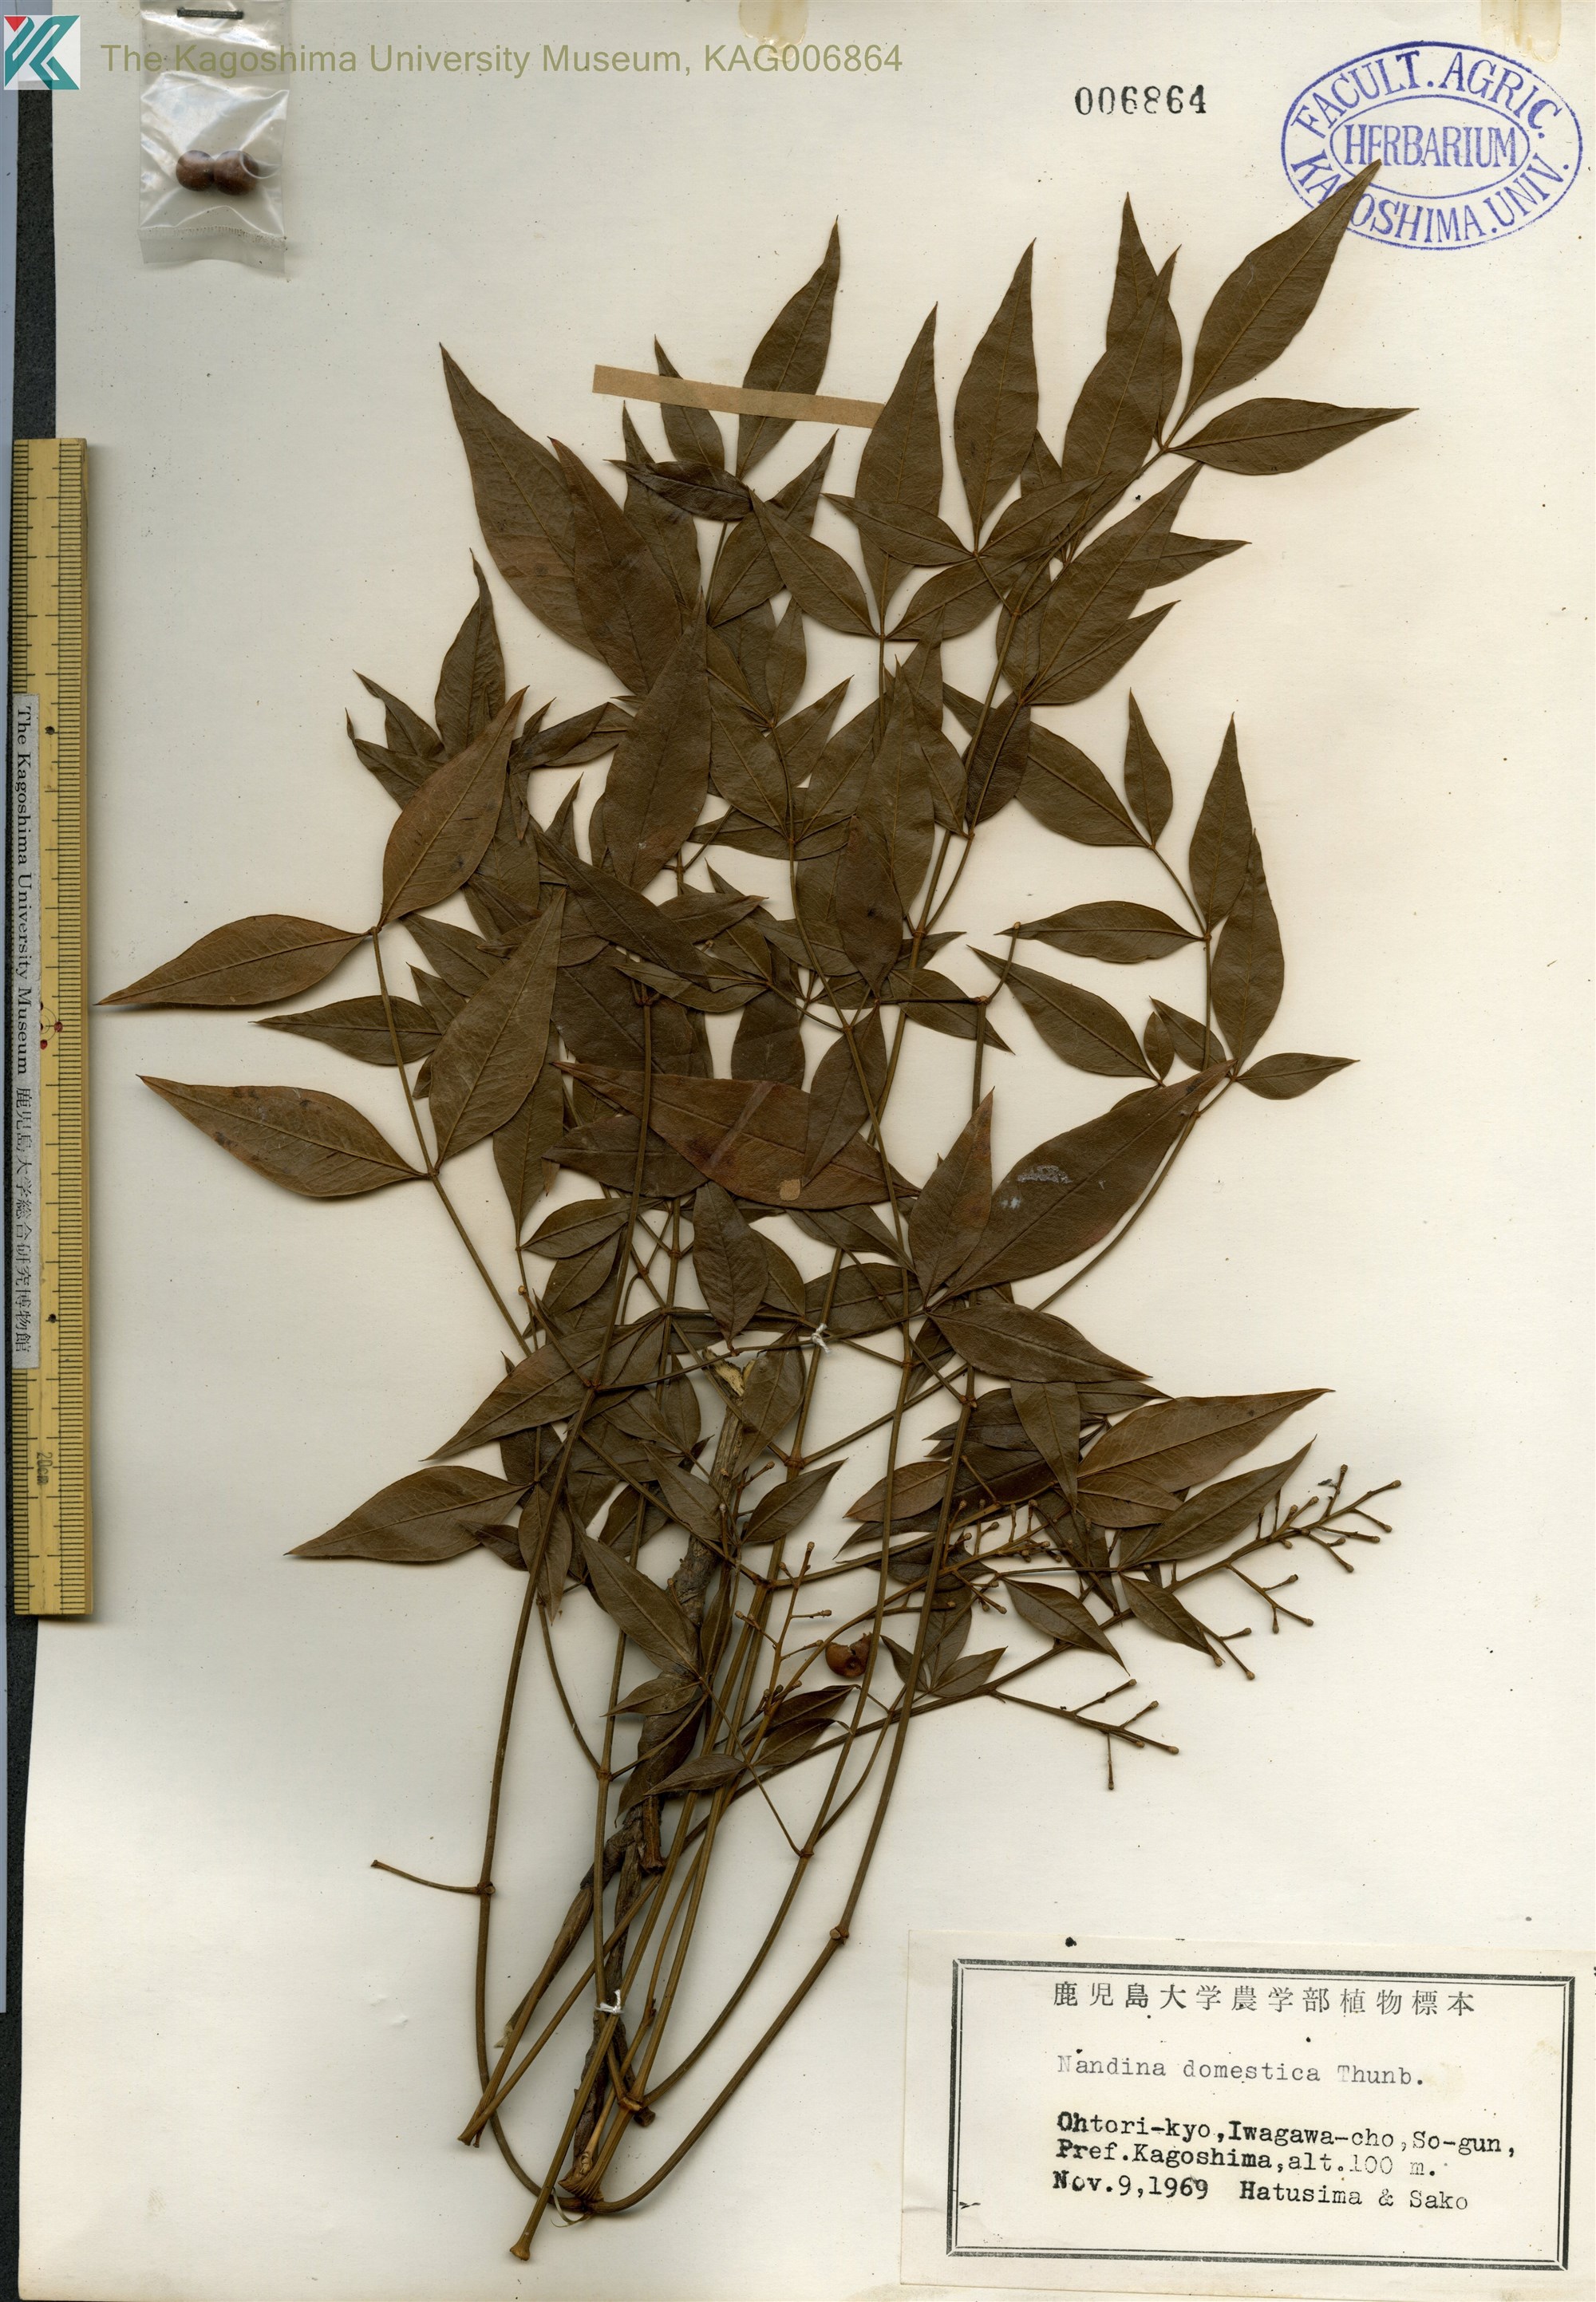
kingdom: Plantae
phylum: Tracheophyta
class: Magnoliopsida
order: Ranunculales
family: Berberidaceae
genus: Nandina
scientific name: Nandina domestica
